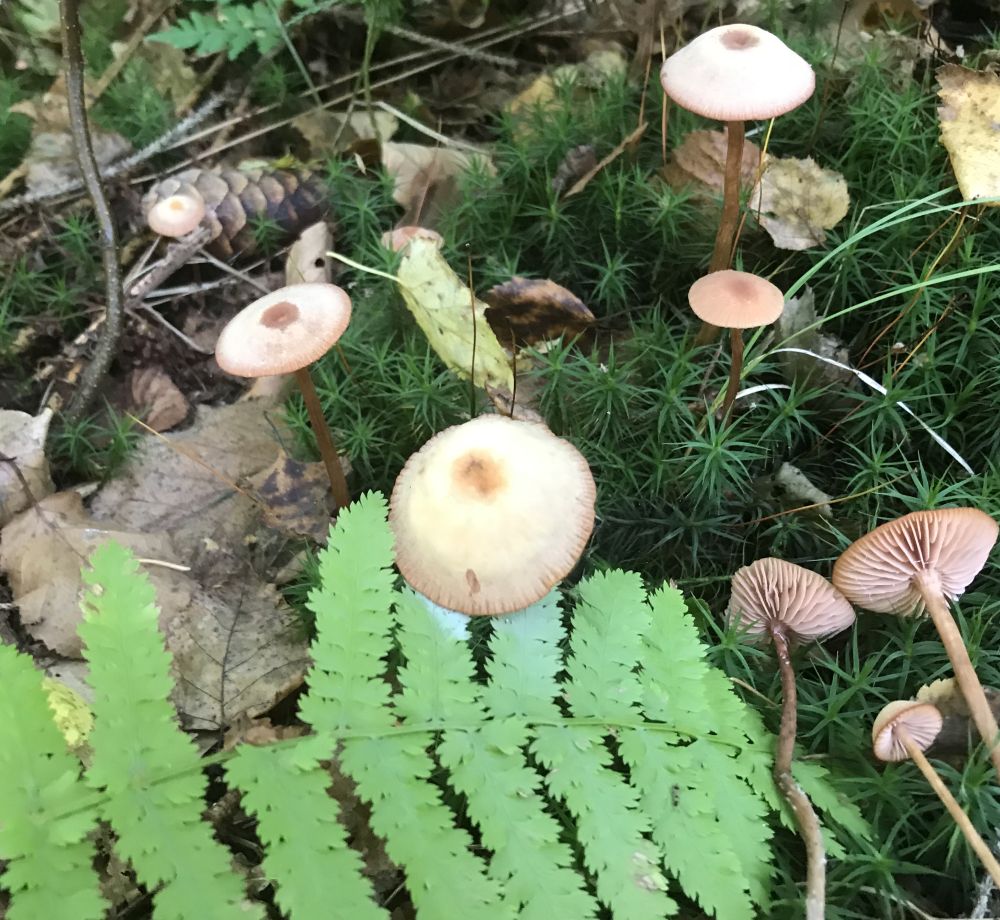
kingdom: Fungi
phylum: Basidiomycota
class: Agaricomycetes
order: Agaricales
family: Hydnangiaceae
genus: Laccaria
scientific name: Laccaria proxima
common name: stor ametysthat
